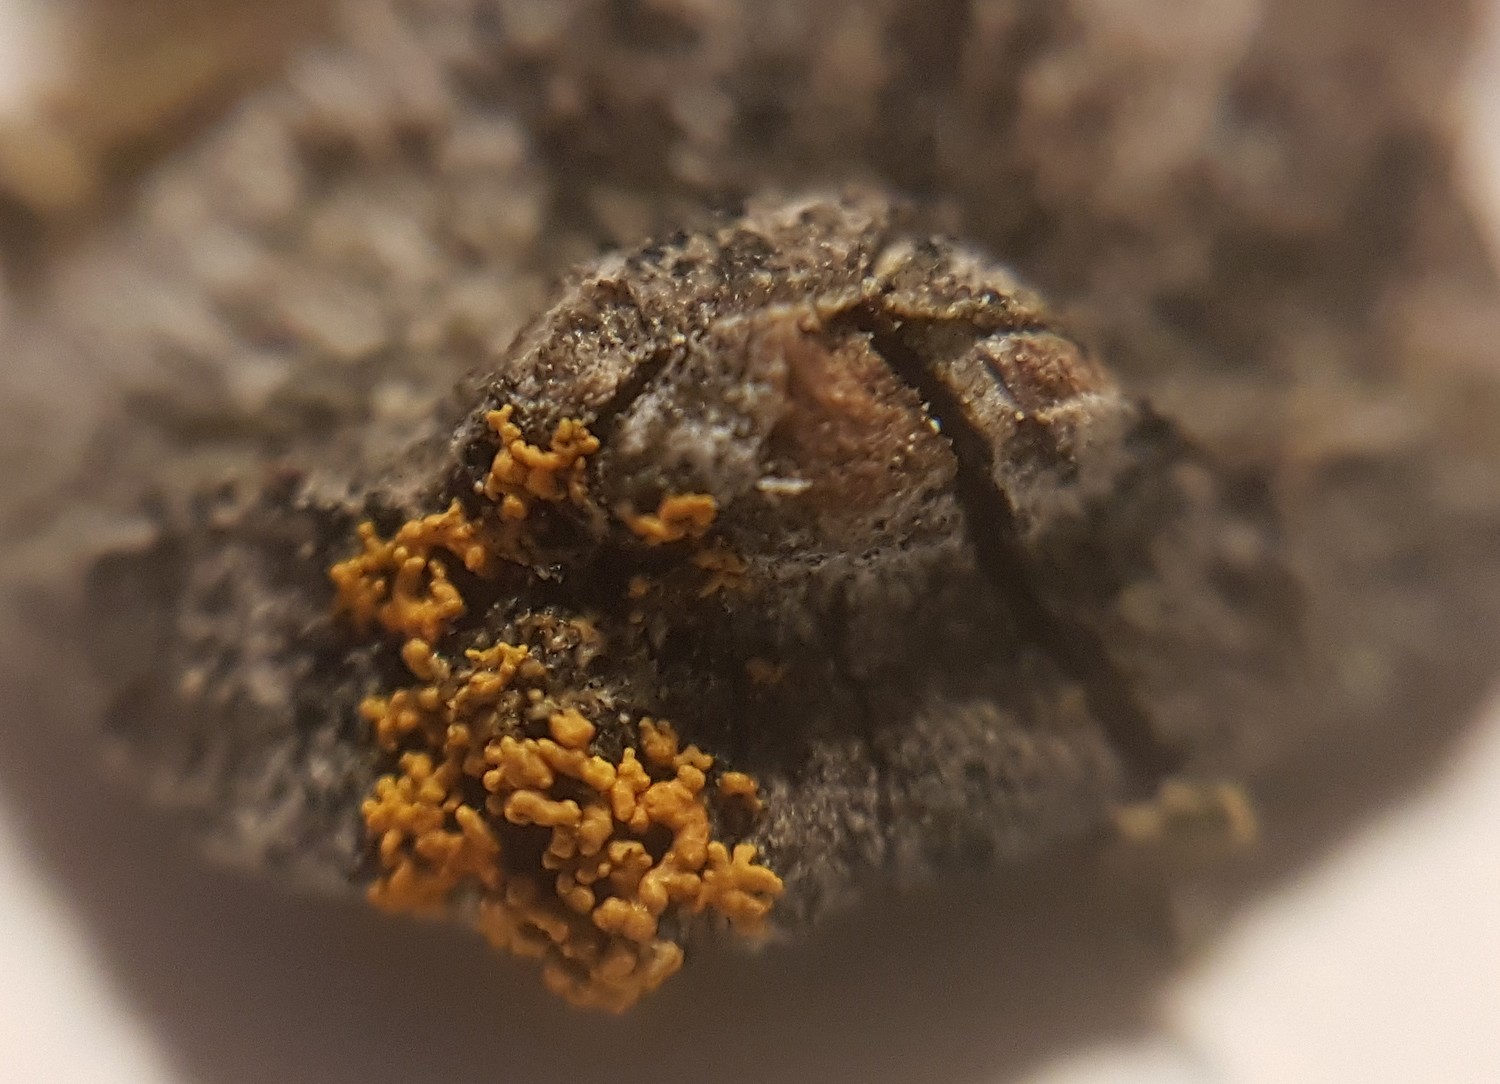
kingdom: Fungi
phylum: Ascomycota
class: Lecanoromycetes
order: Teloschistales
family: Teloschistaceae
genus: Polycauliona
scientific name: Polycauliona polycarpa
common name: mangefrugtet orangelav
